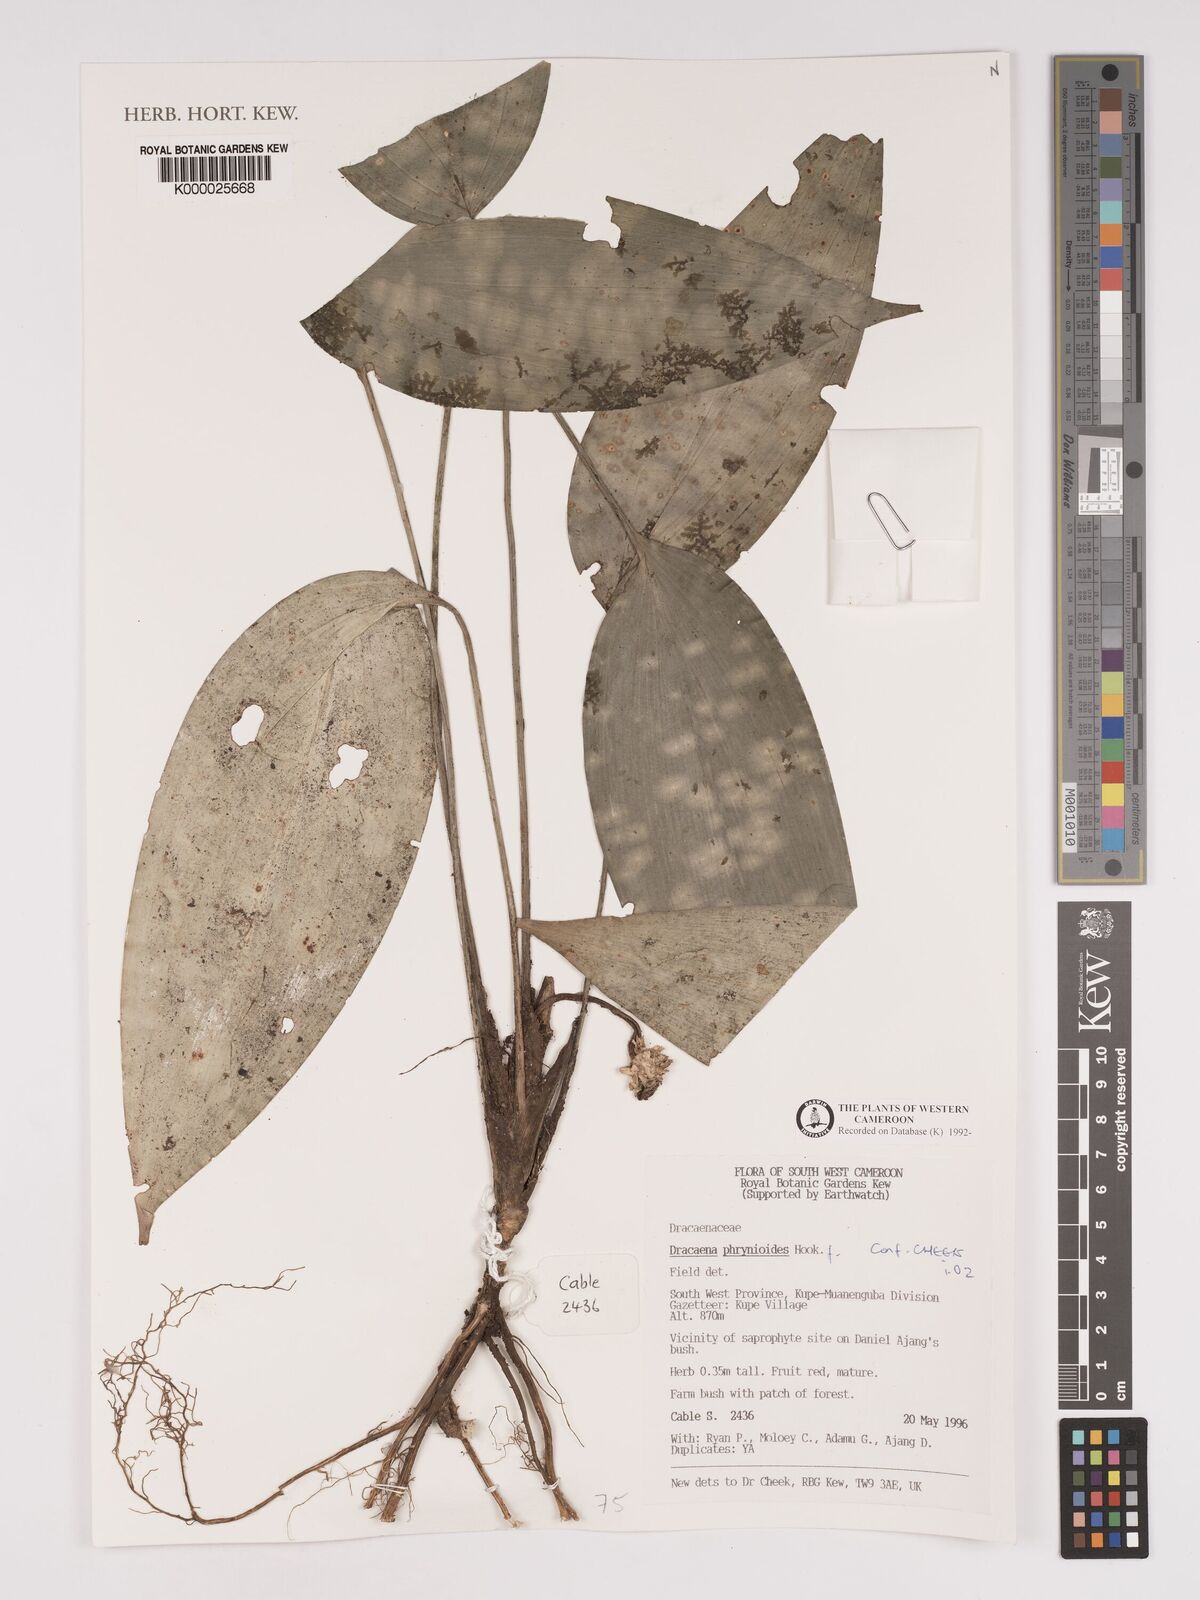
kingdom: Plantae
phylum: Tracheophyta
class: Liliopsida
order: Asparagales
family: Asparagaceae
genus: Dracaena
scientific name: Dracaena phrynioides
